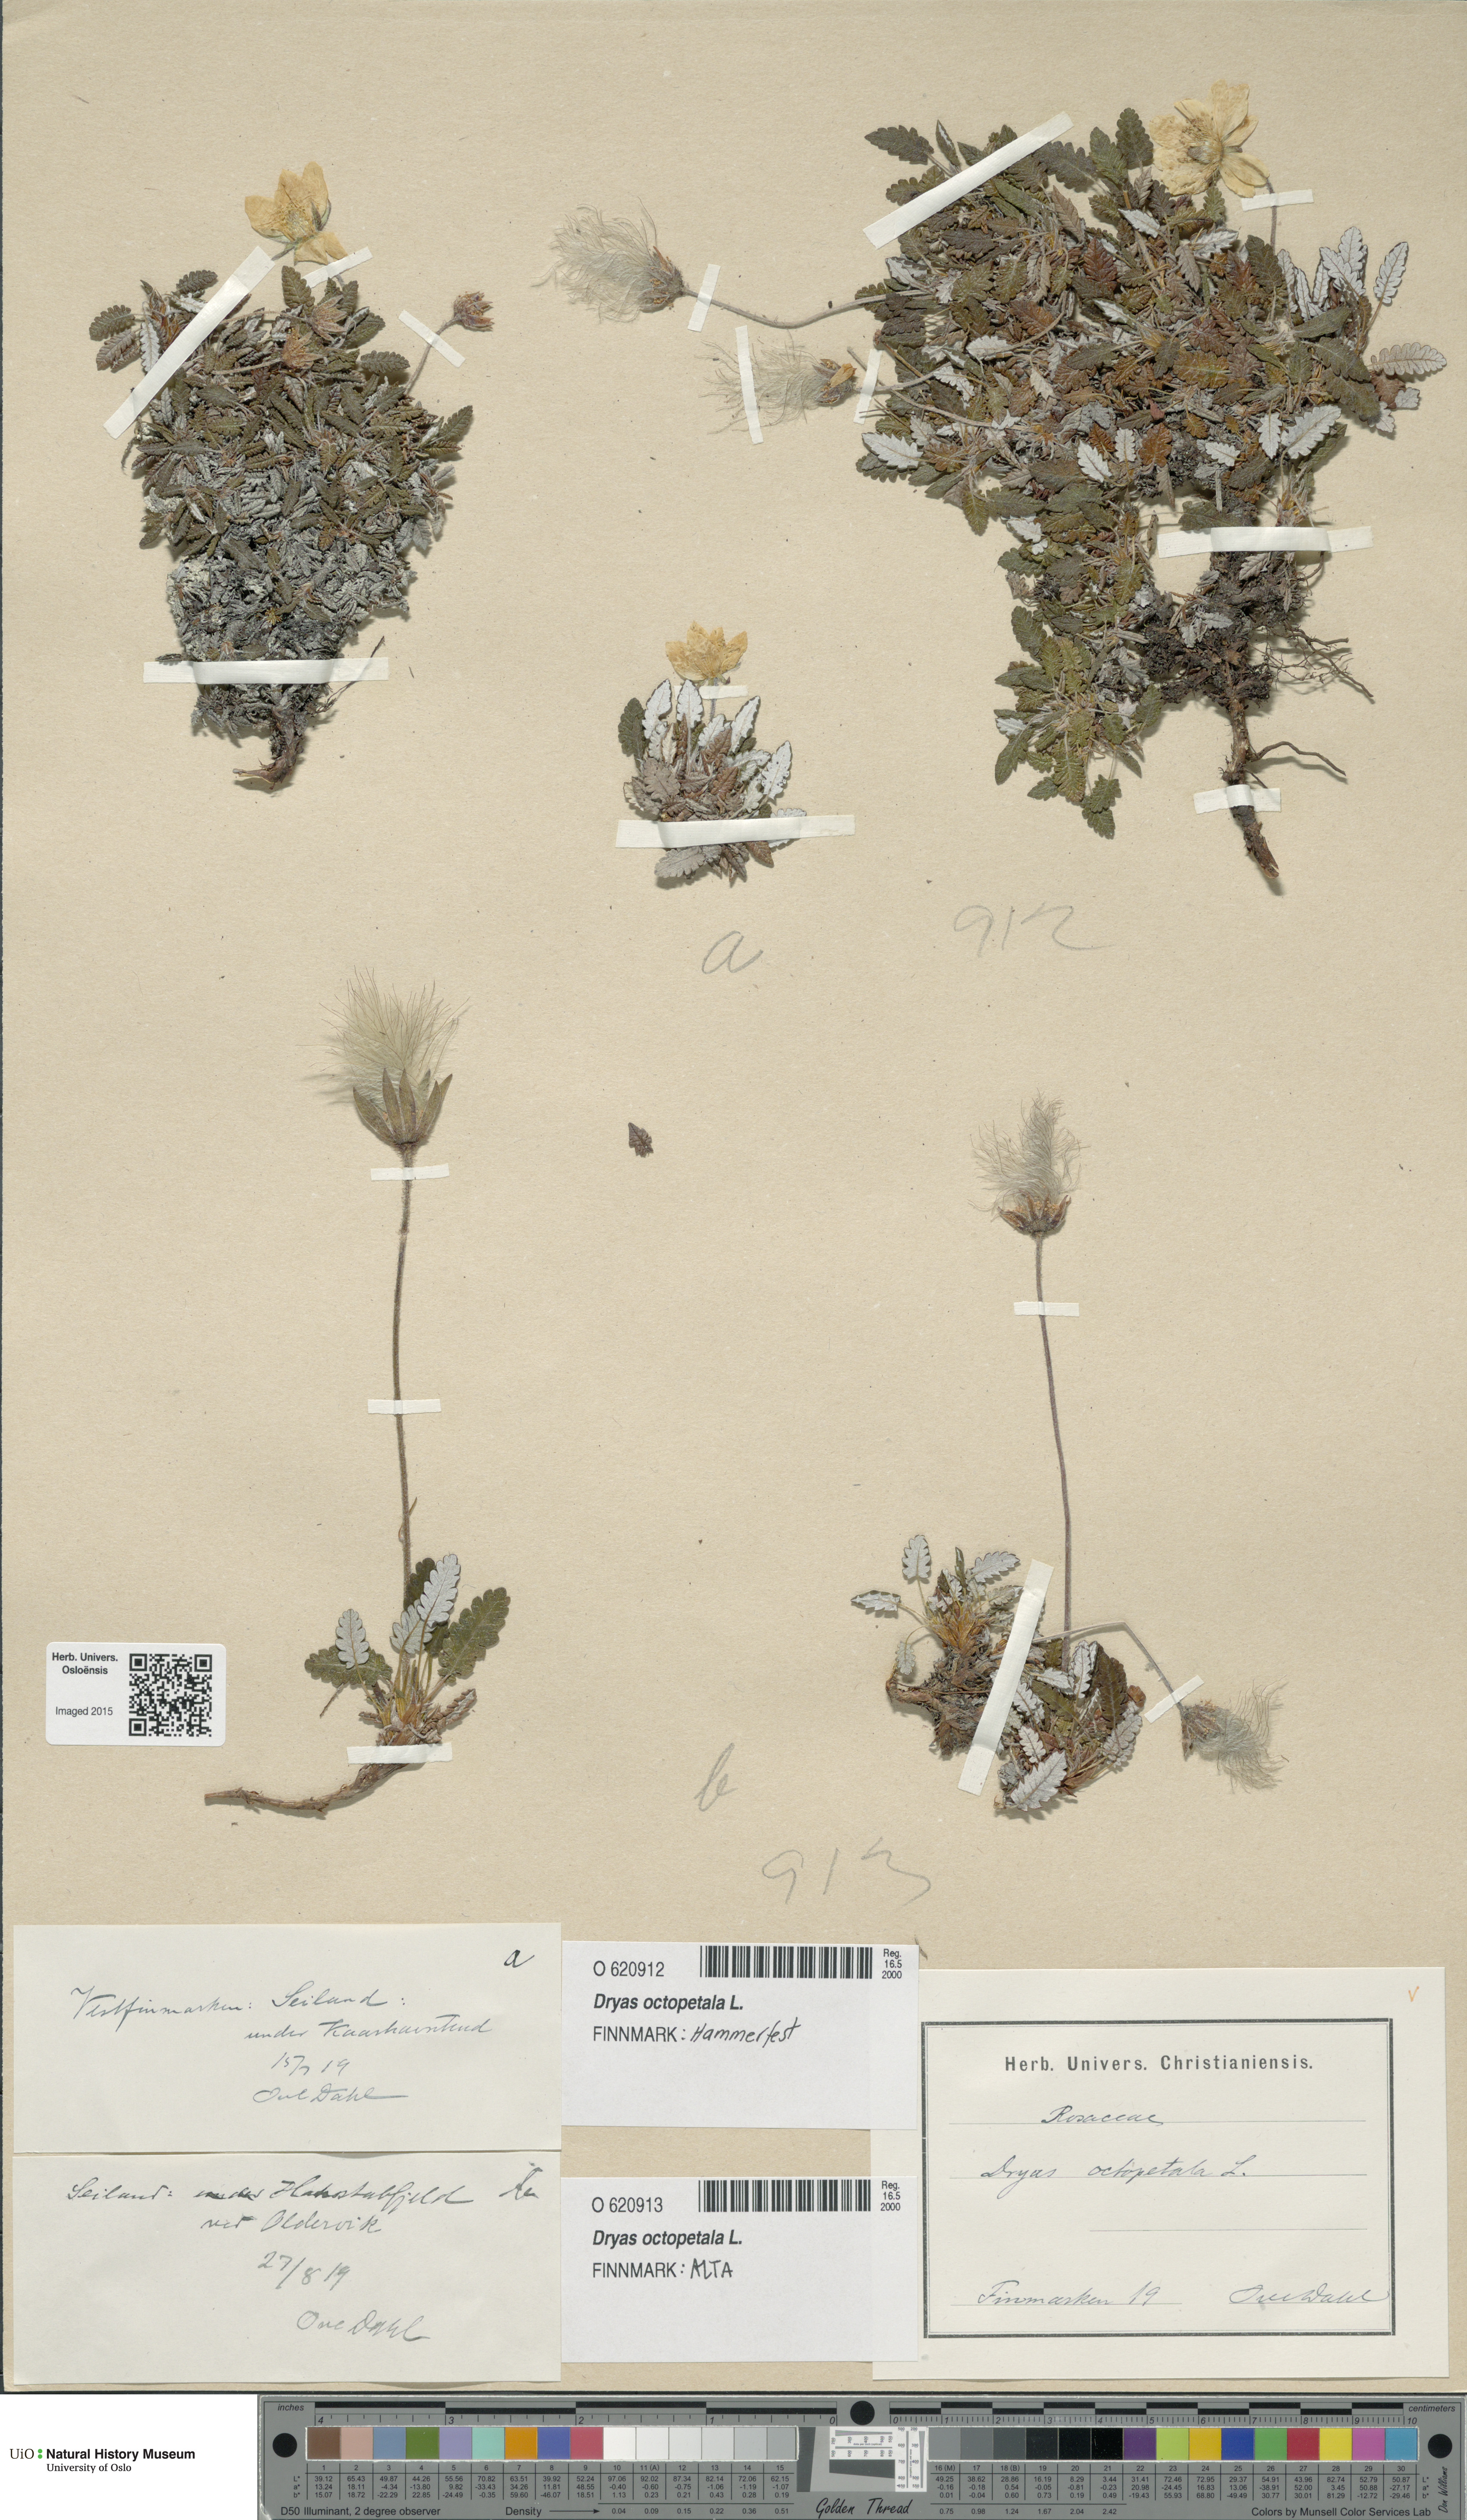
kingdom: Plantae
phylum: Tracheophyta
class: Magnoliopsida
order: Rosales
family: Rosaceae
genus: Dryas
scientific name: Dryas octopetala
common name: Eight-petal mountain-avens
